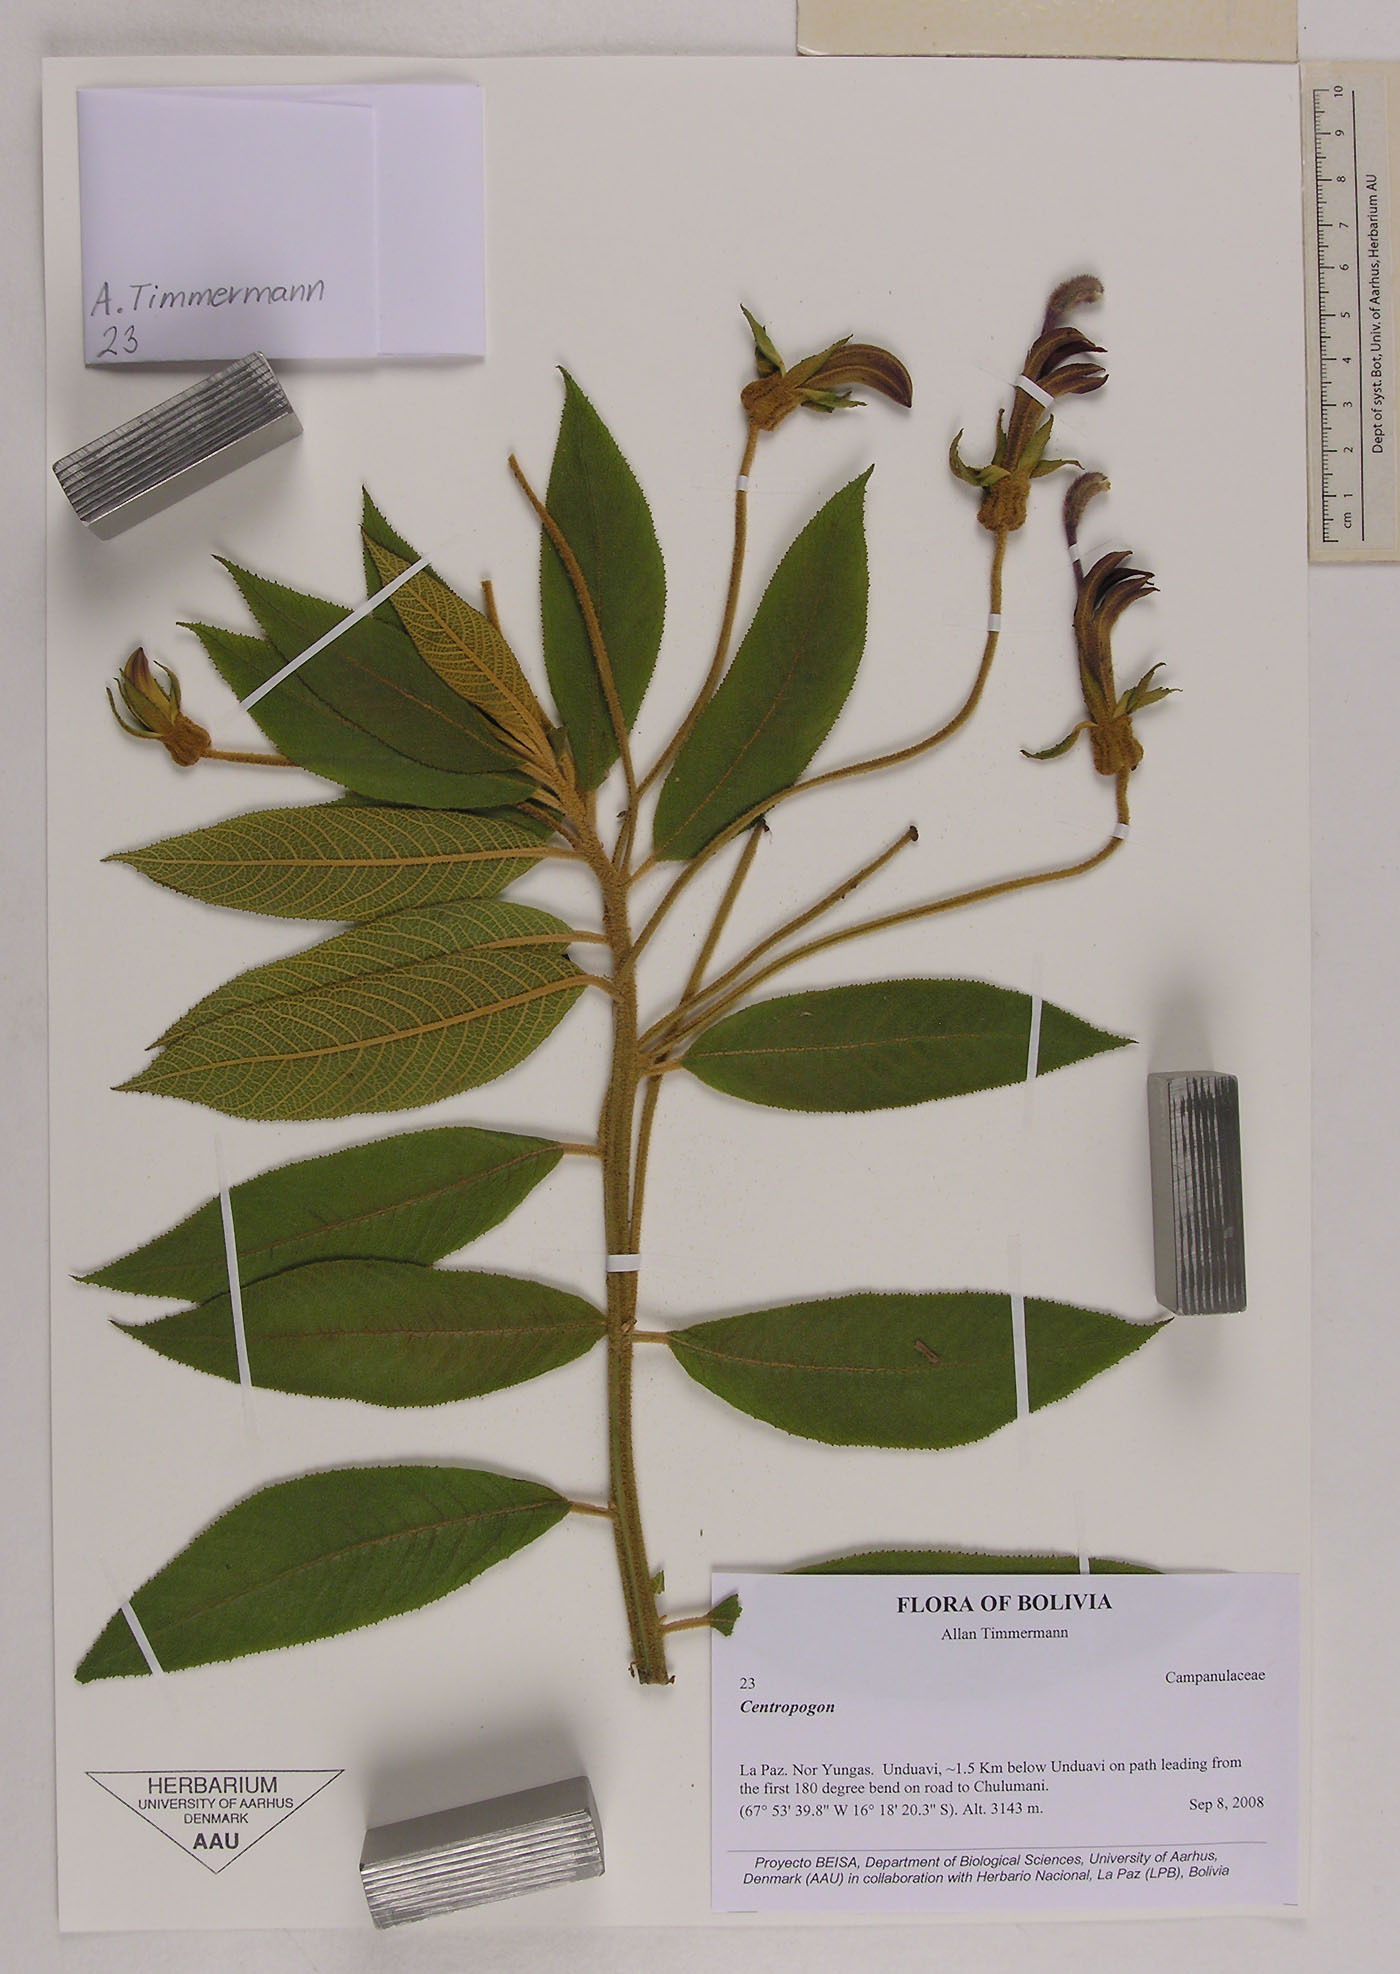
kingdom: Plantae
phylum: Tracheophyta
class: Magnoliopsida
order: Asterales
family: Campanulaceae
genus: Centropogon
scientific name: Centropogon
